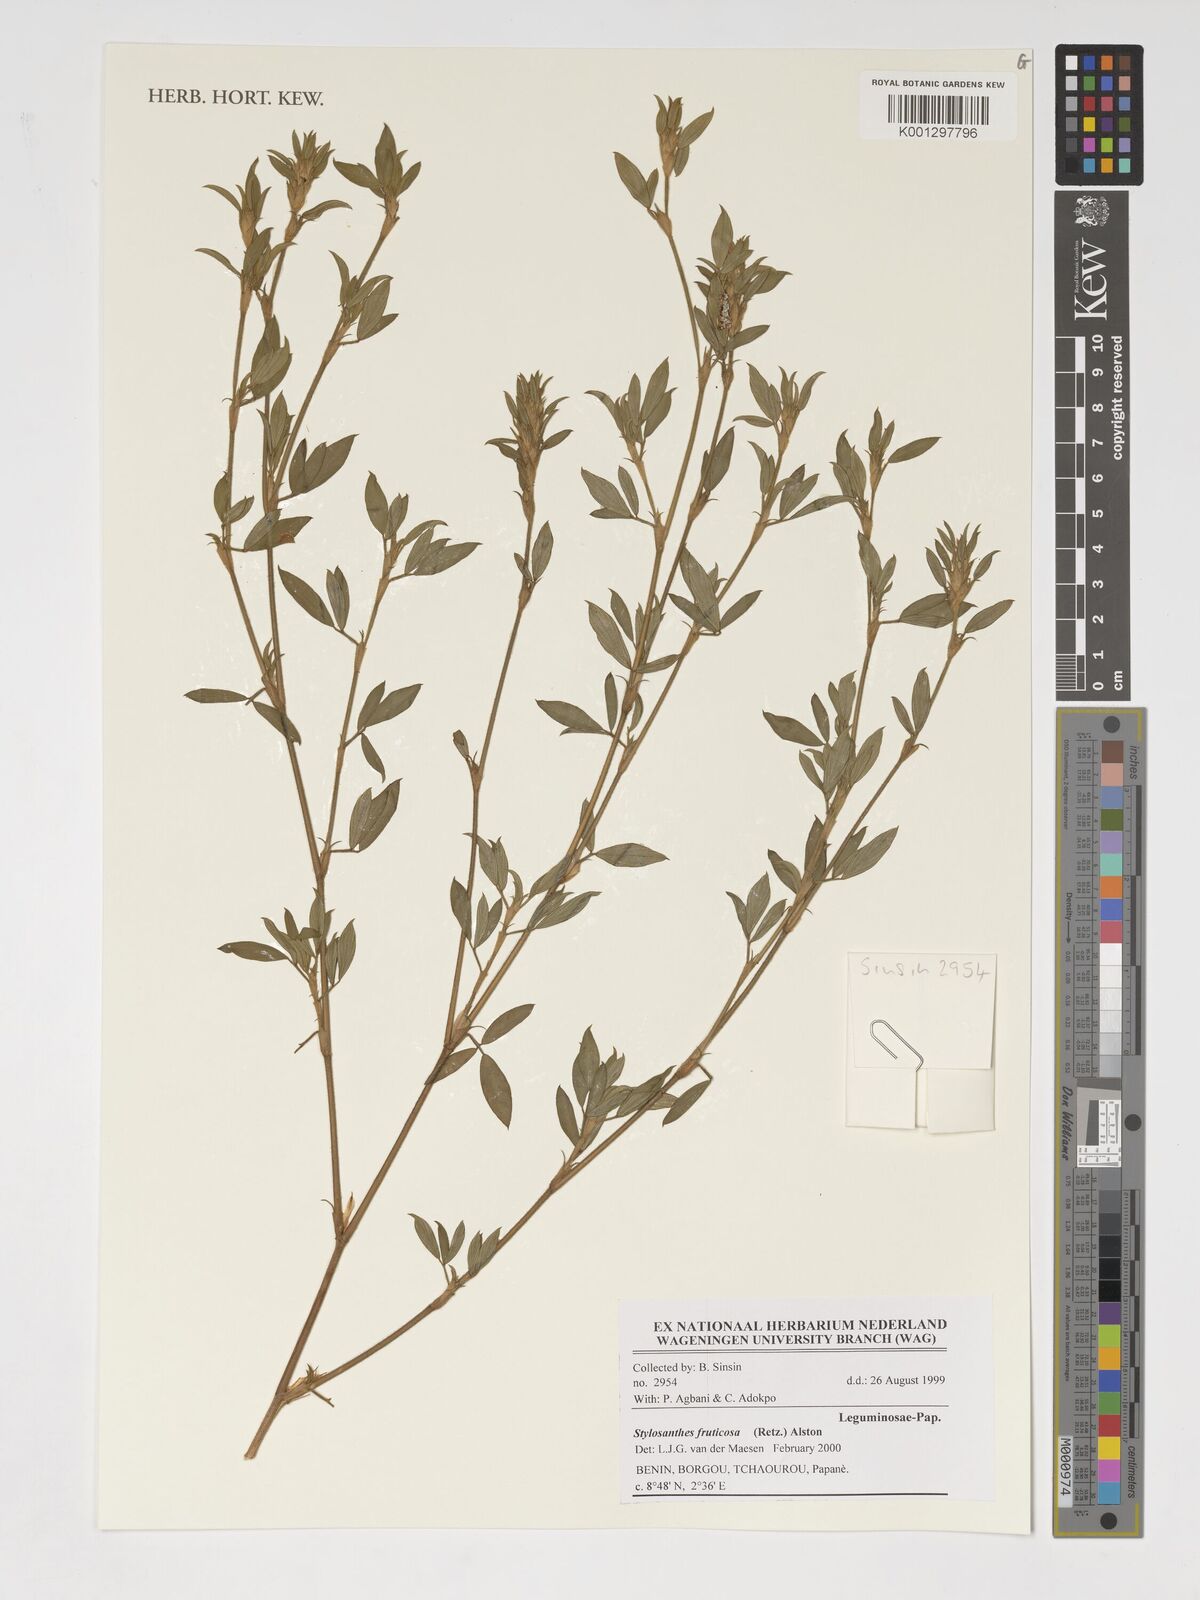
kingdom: Plantae
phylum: Tracheophyta
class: Magnoliopsida
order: Fabales
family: Fabaceae
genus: Stylosanthes
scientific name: Stylosanthes fruticosa
